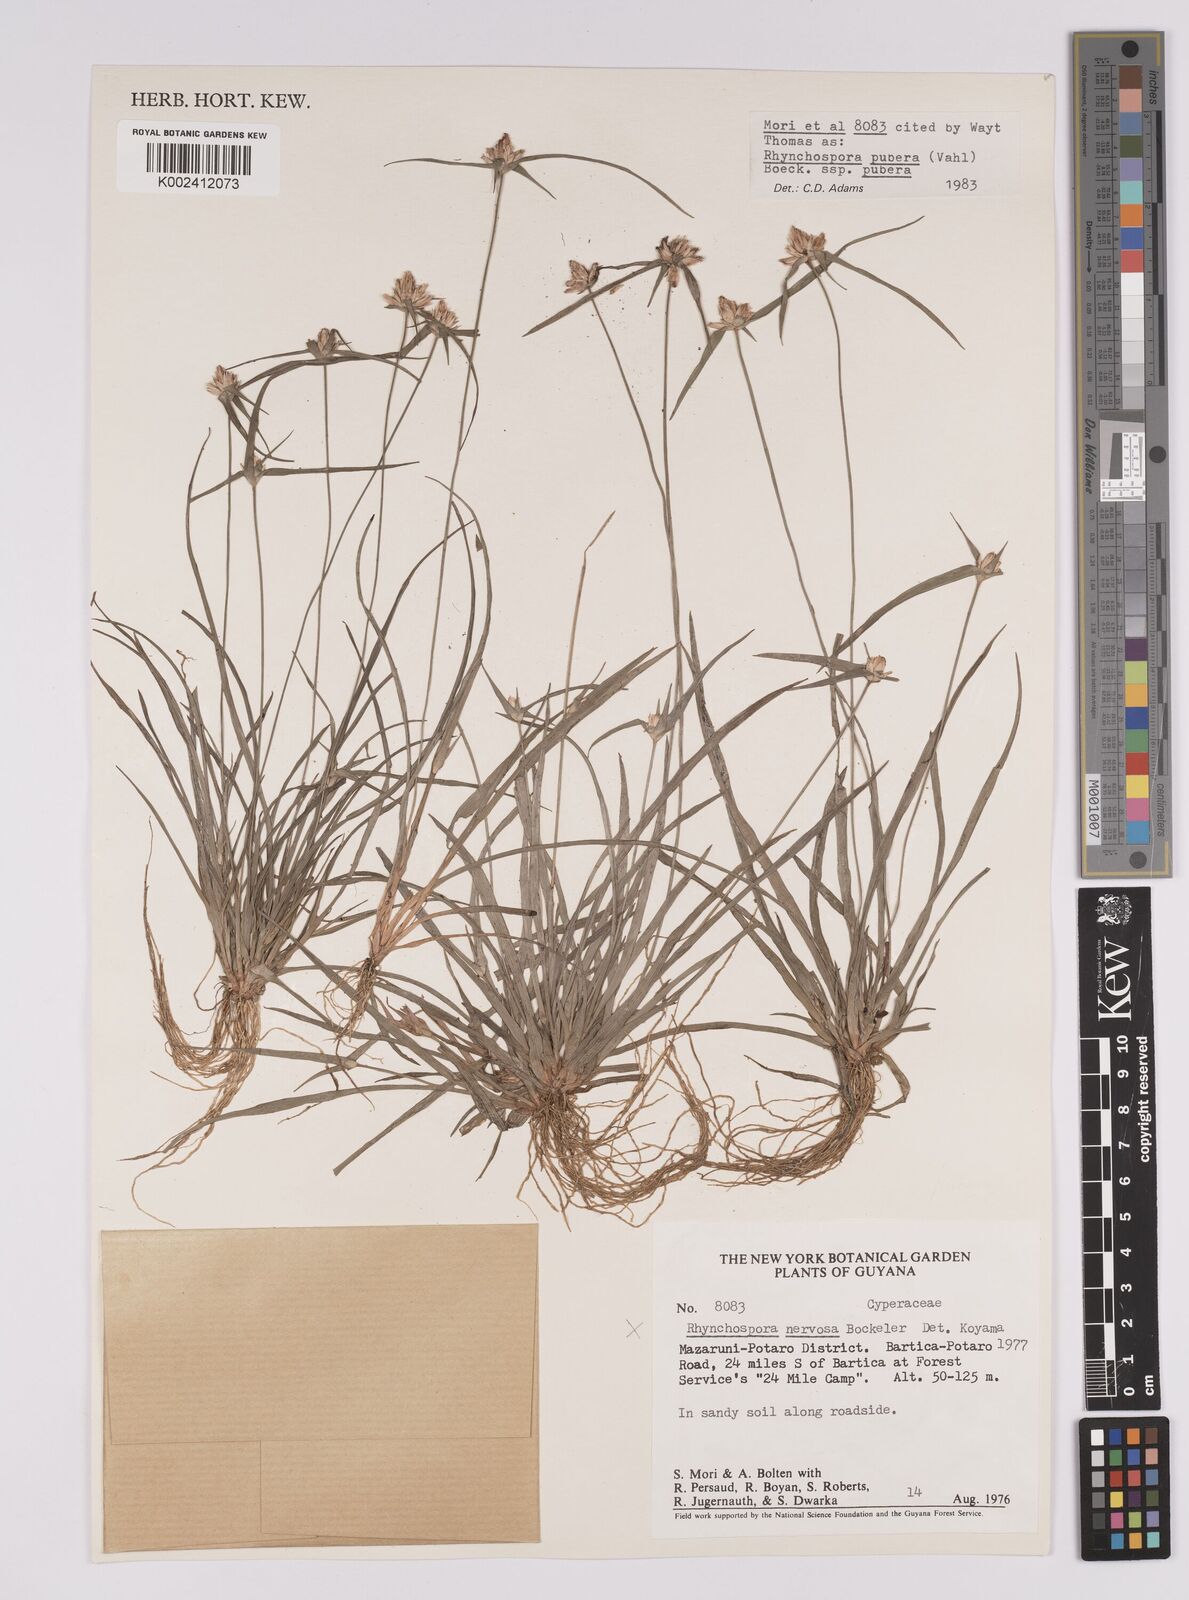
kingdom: Plantae
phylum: Tracheophyta
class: Liliopsida
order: Poales
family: Cyperaceae
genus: Rhynchospora
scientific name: Rhynchospora pubera
